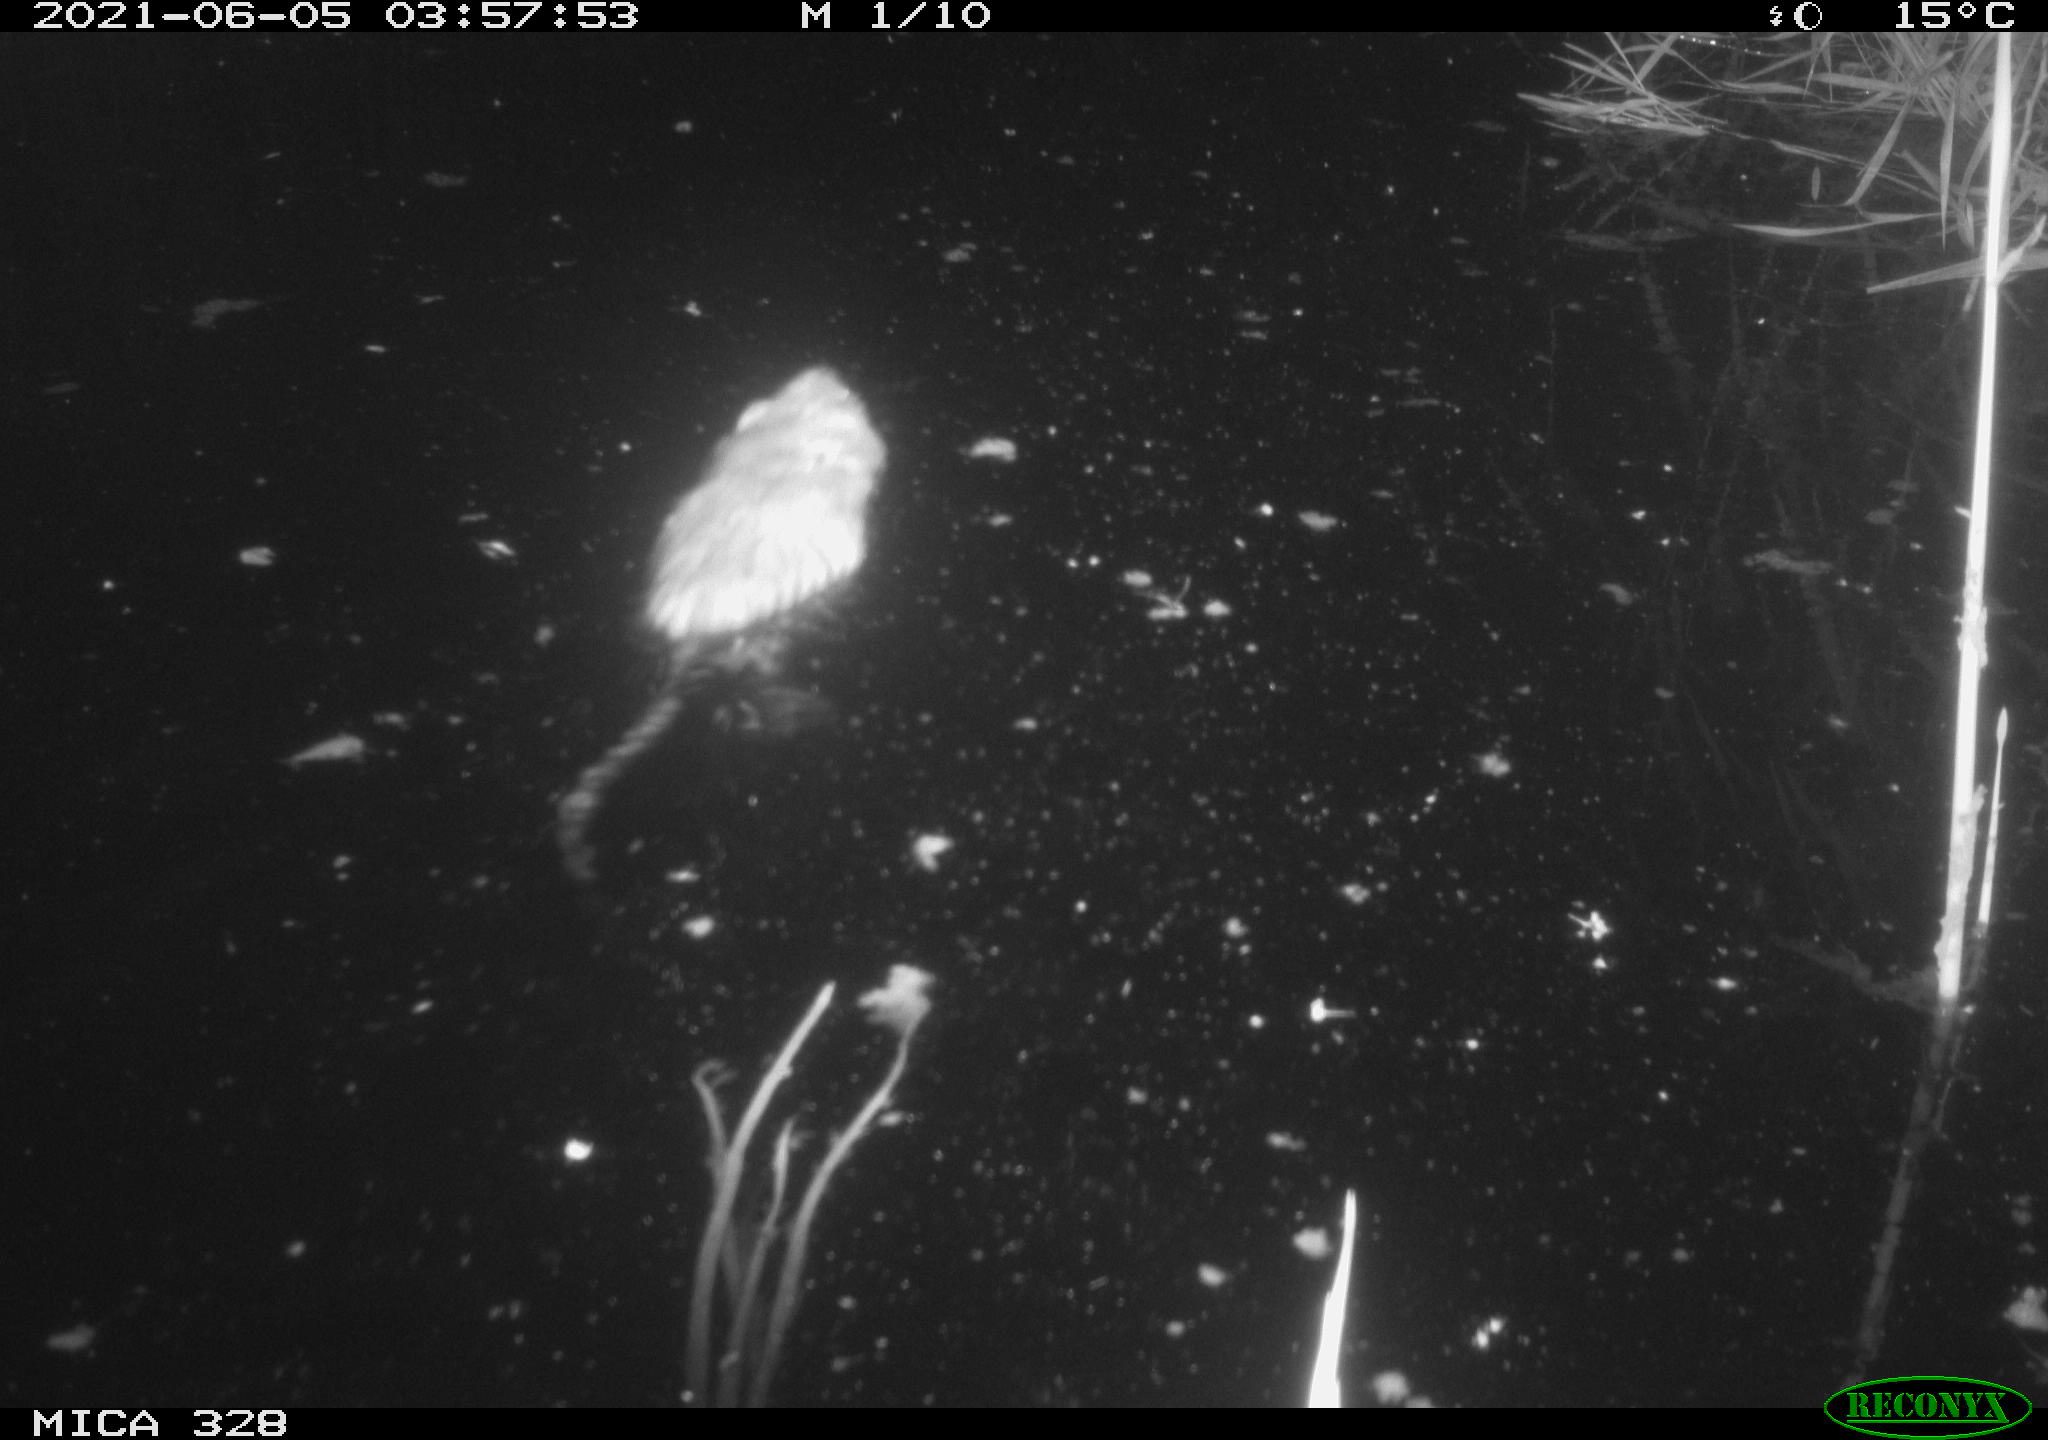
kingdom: Animalia
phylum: Chordata
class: Mammalia
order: Rodentia
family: Cricetidae
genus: Ondatra
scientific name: Ondatra zibethicus
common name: Muskrat
